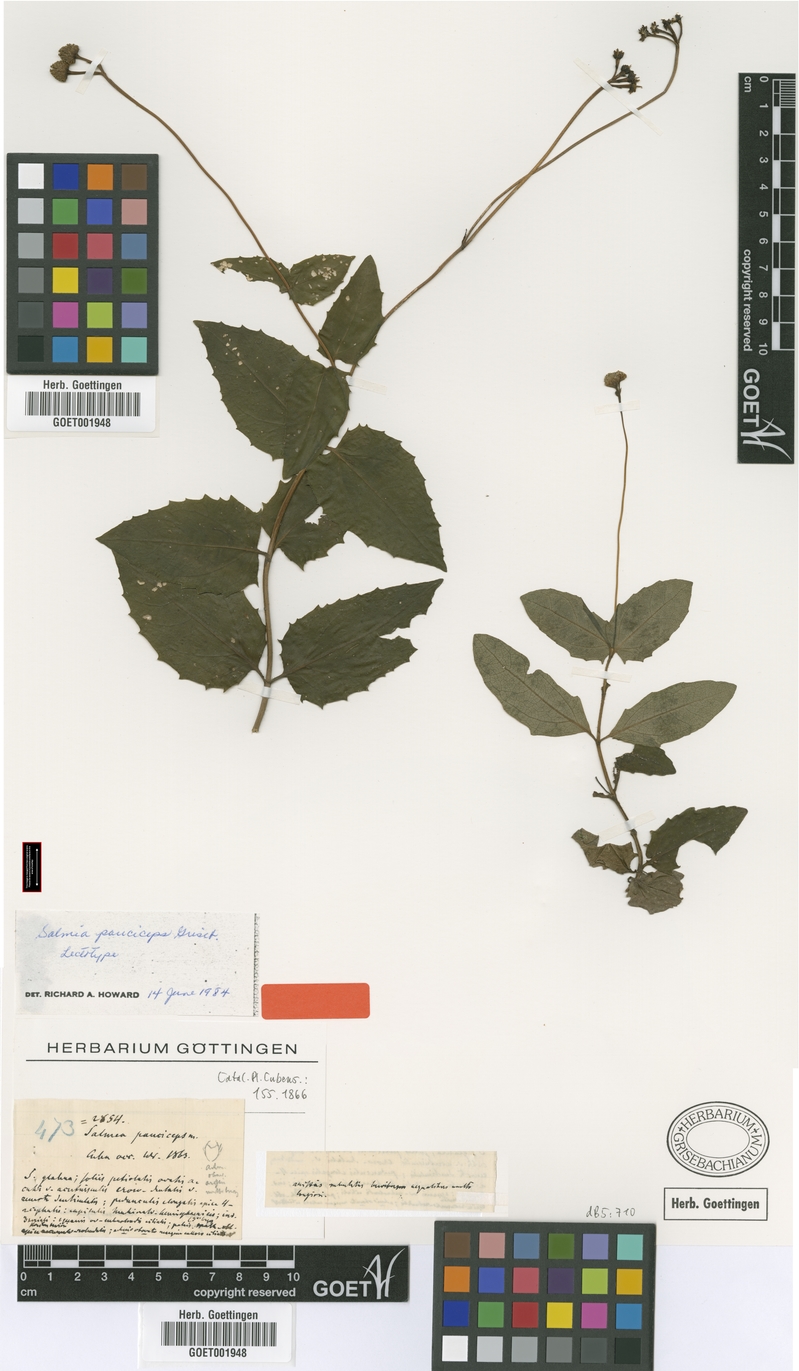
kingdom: Plantae
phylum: Tracheophyta
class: Magnoliopsida
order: Asterales
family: Asteraceae
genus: Salmea
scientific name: Salmea pauciceps
